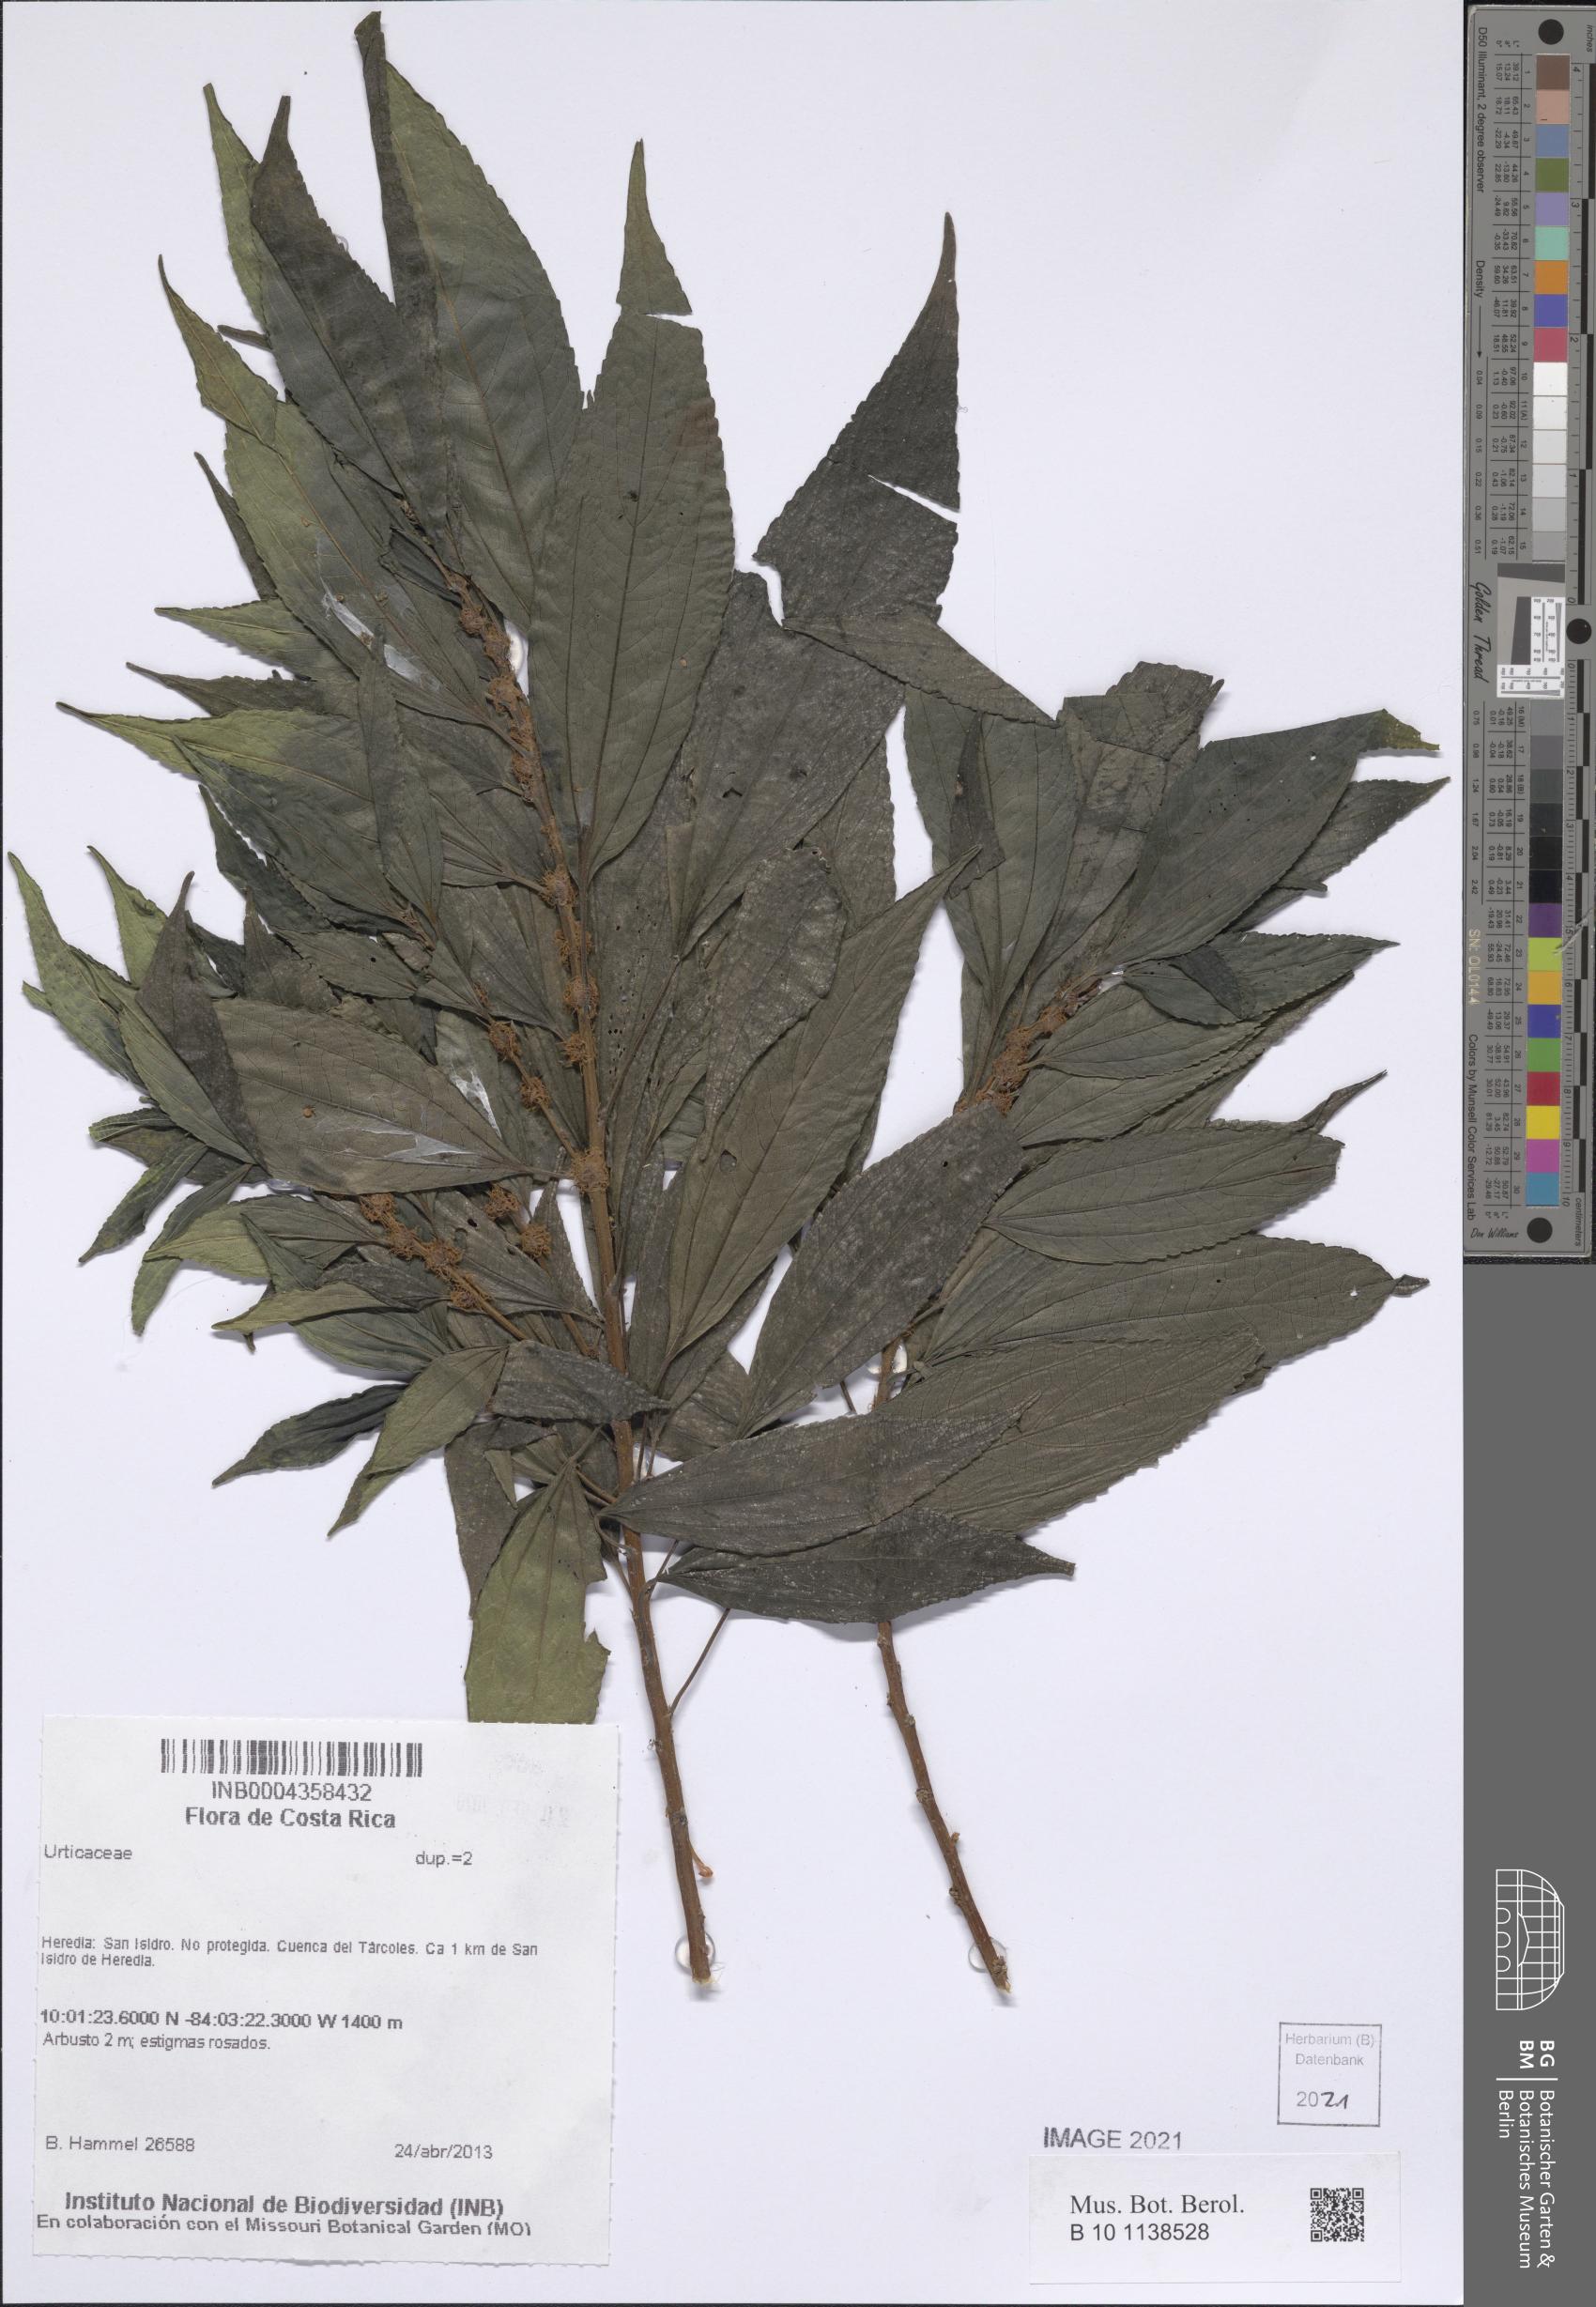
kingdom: Plantae
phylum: Tracheophyta
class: Magnoliopsida
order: Rosales
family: Urticaceae
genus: Phenax
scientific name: Phenax mexicanus
